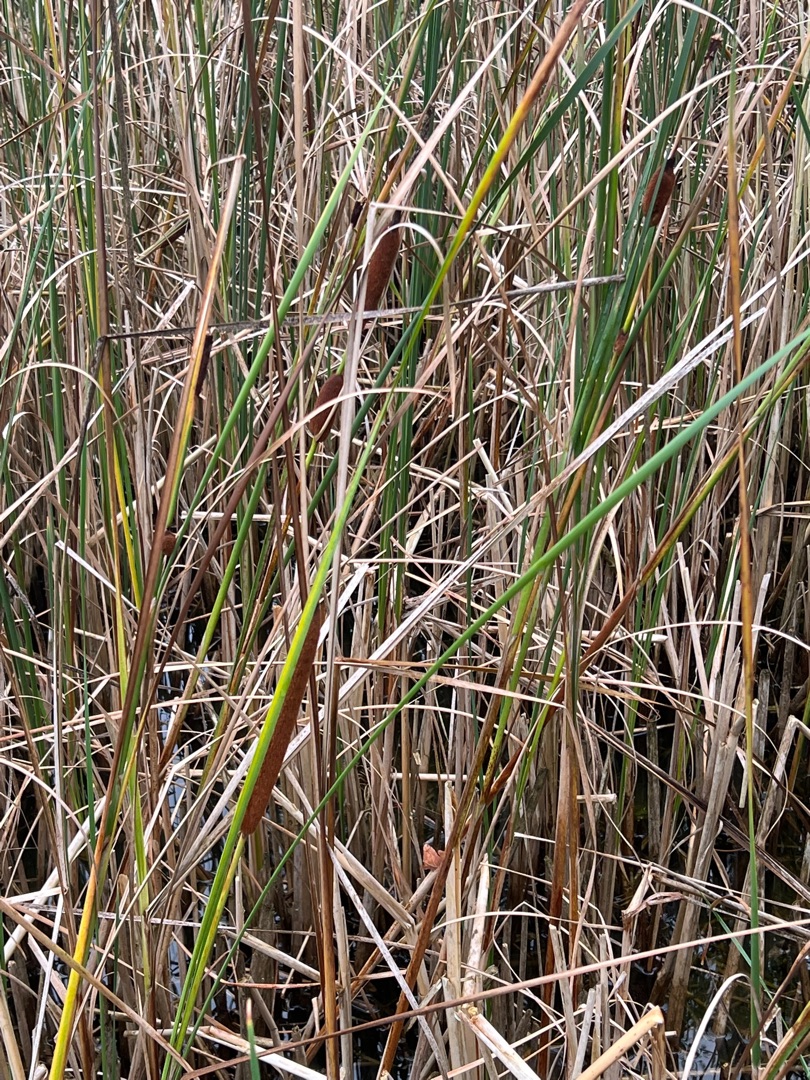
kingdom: Plantae
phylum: Tracheophyta
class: Liliopsida
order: Poales
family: Typhaceae
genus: Typha
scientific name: Typha angustifolia
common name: Smalbladet dunhammer
